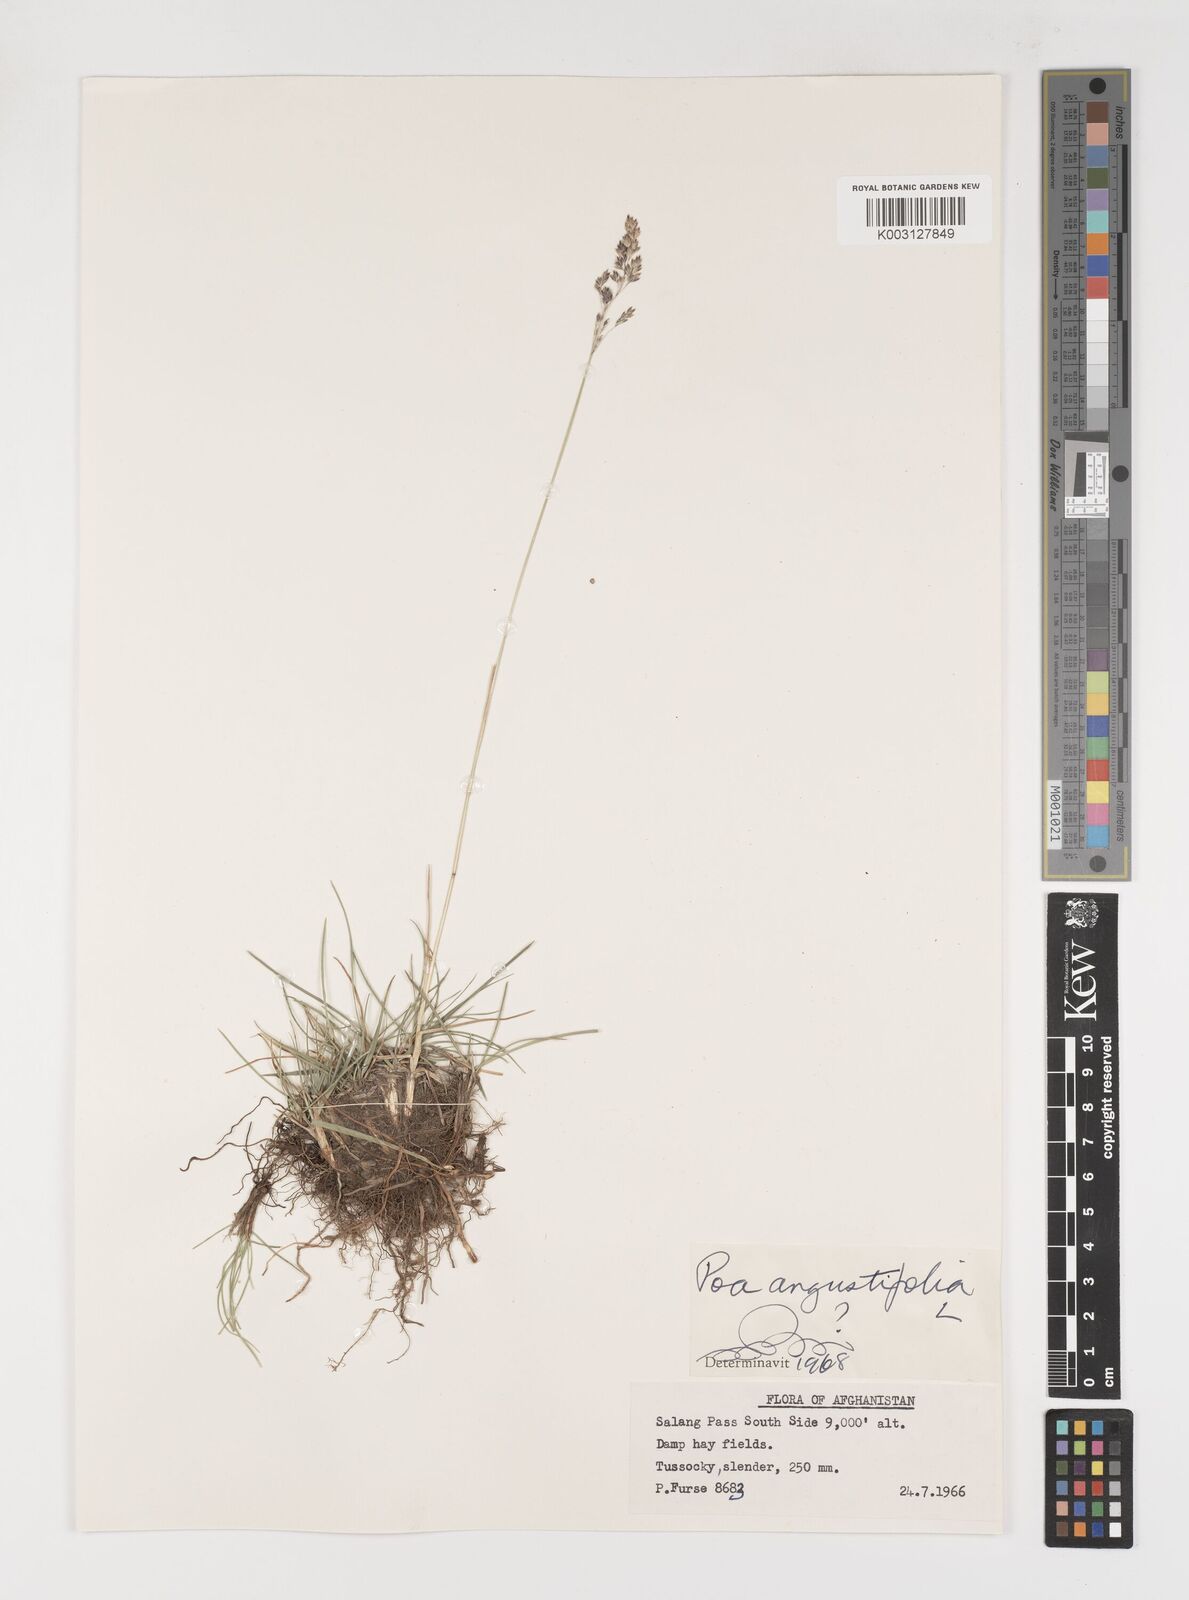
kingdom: Plantae
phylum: Tracheophyta
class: Liliopsida
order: Poales
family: Poaceae
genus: Poa
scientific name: Poa angustifolia
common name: Narrow-leaved meadow-grass
